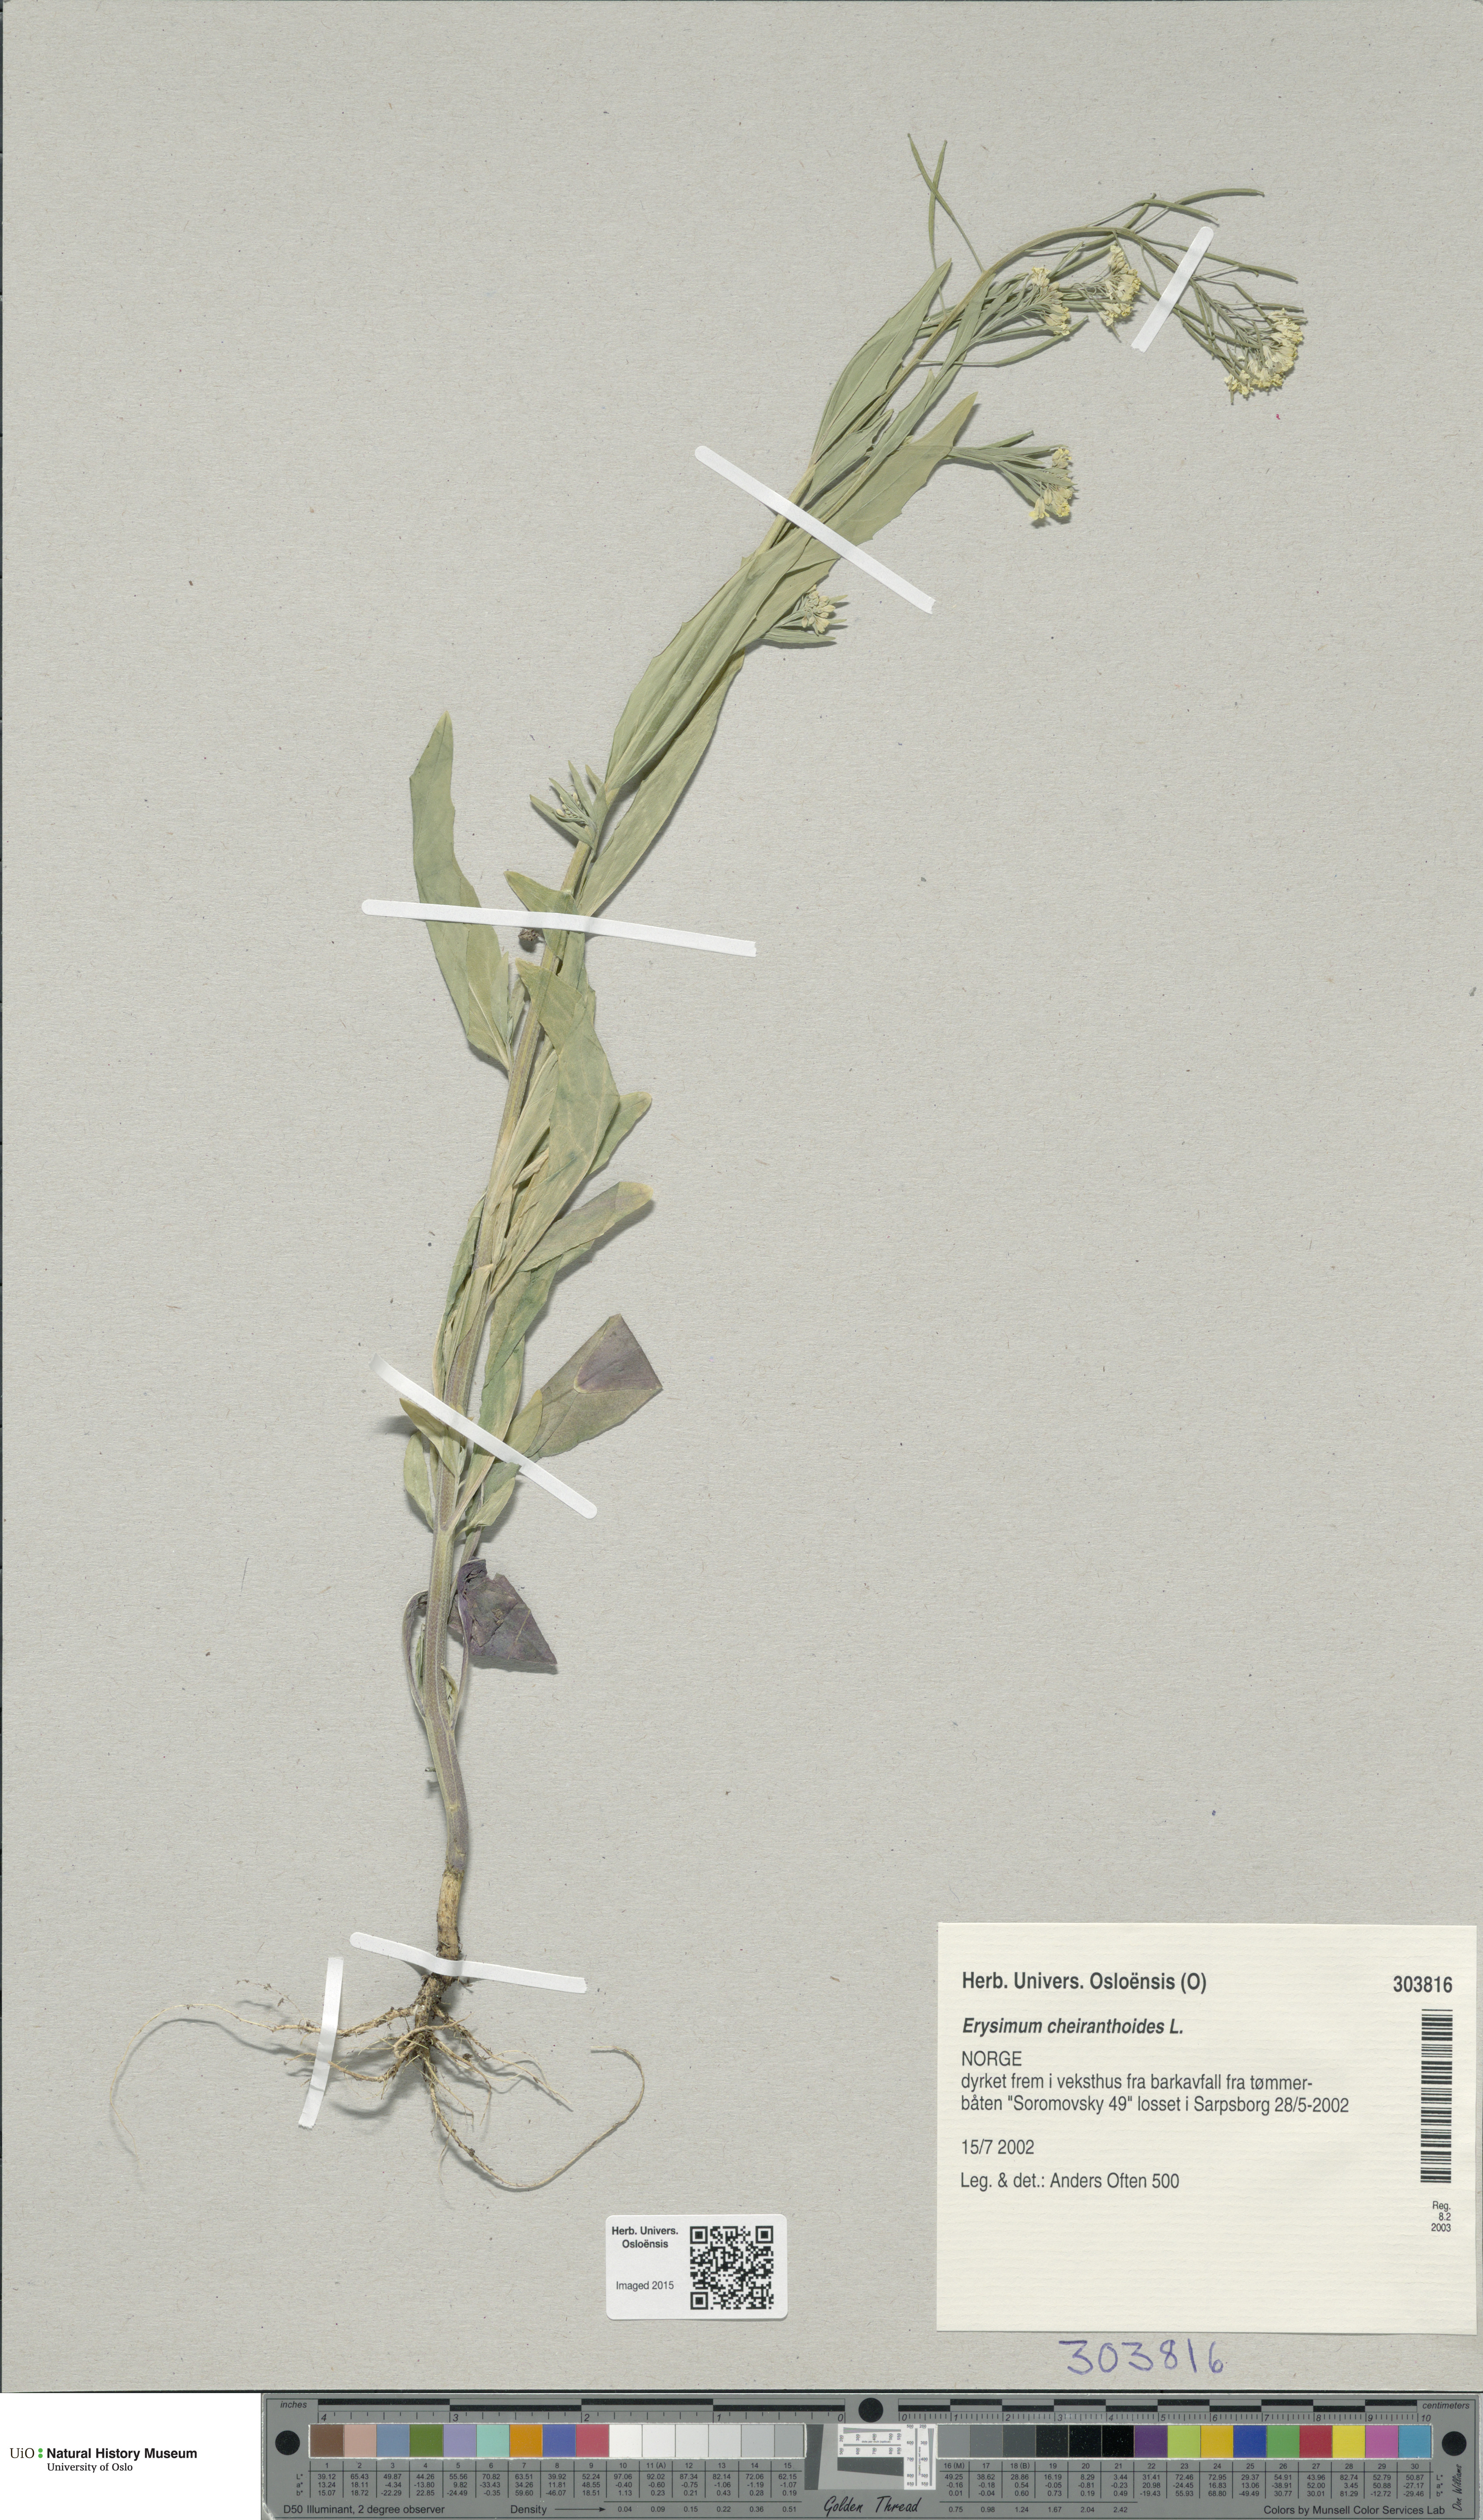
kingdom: Plantae
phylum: Tracheophyta
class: Magnoliopsida
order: Brassicales
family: Brassicaceae
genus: Erysimum
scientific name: Erysimum cheiranthoides
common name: Treacle mustard
